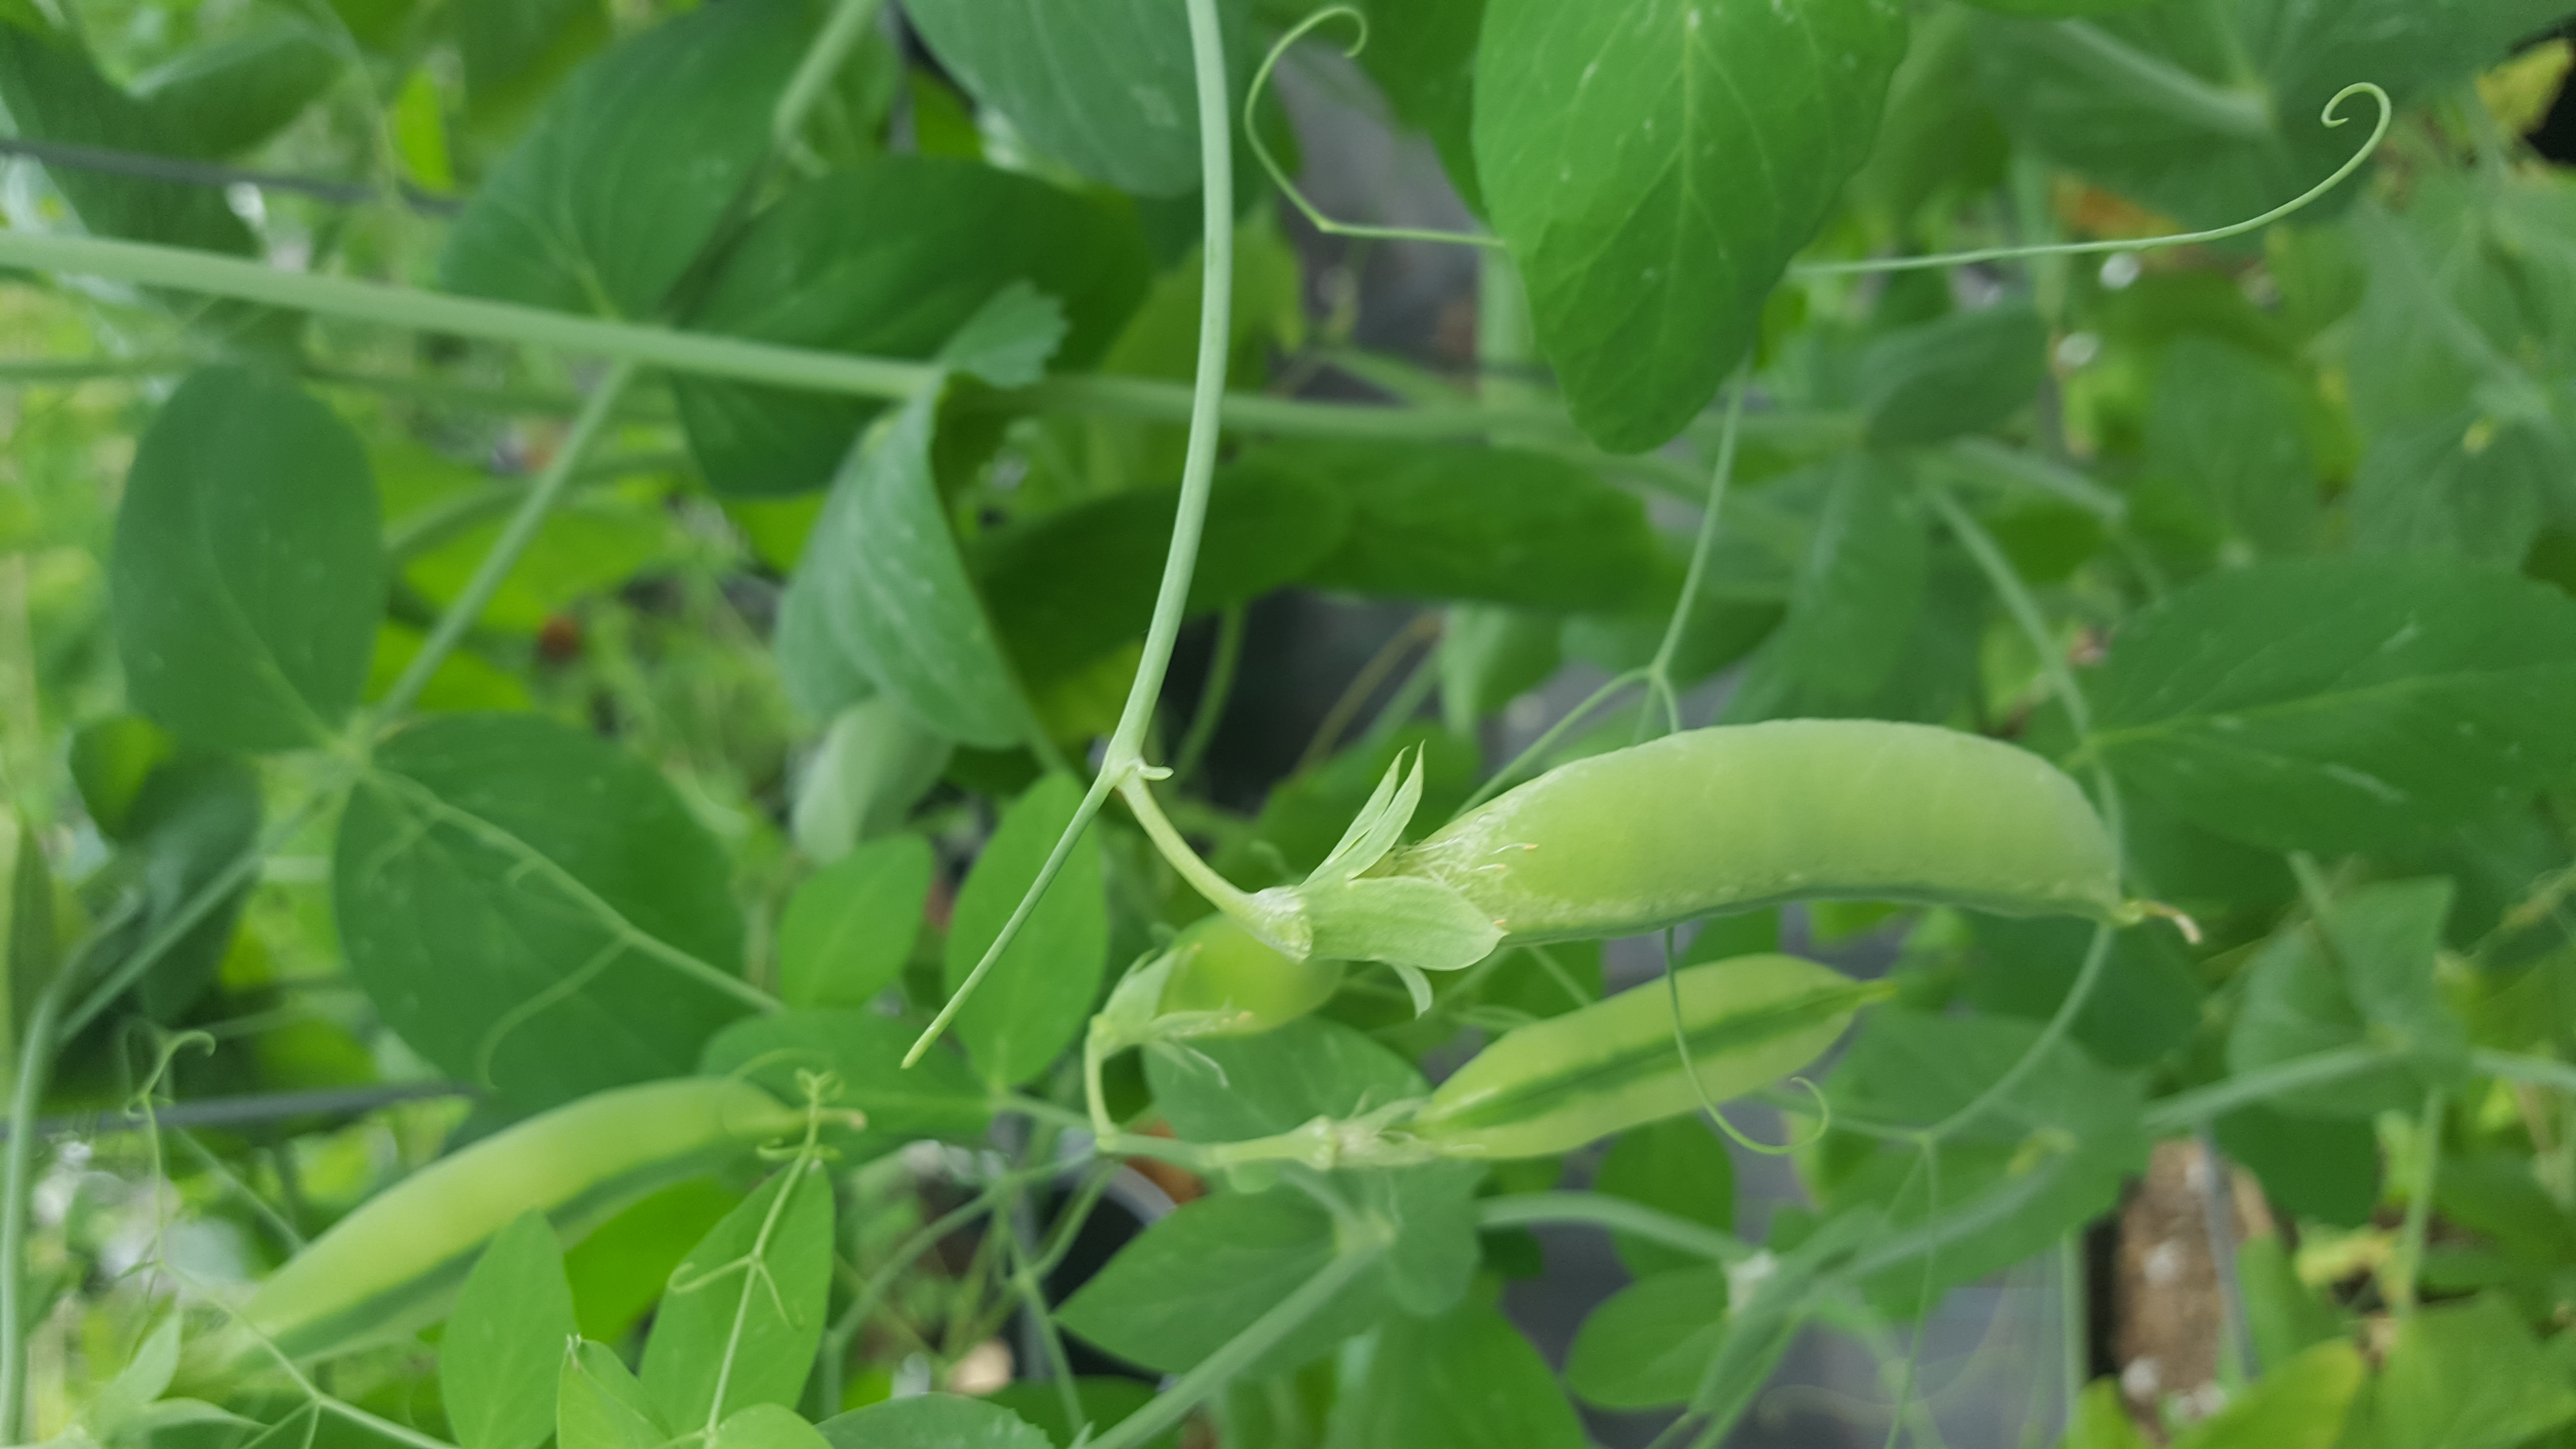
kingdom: Plantae
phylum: Tracheophyta
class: Magnoliopsida
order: Fabales
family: Fabaceae
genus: Lathyrus
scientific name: Lathyrus oleraceus
